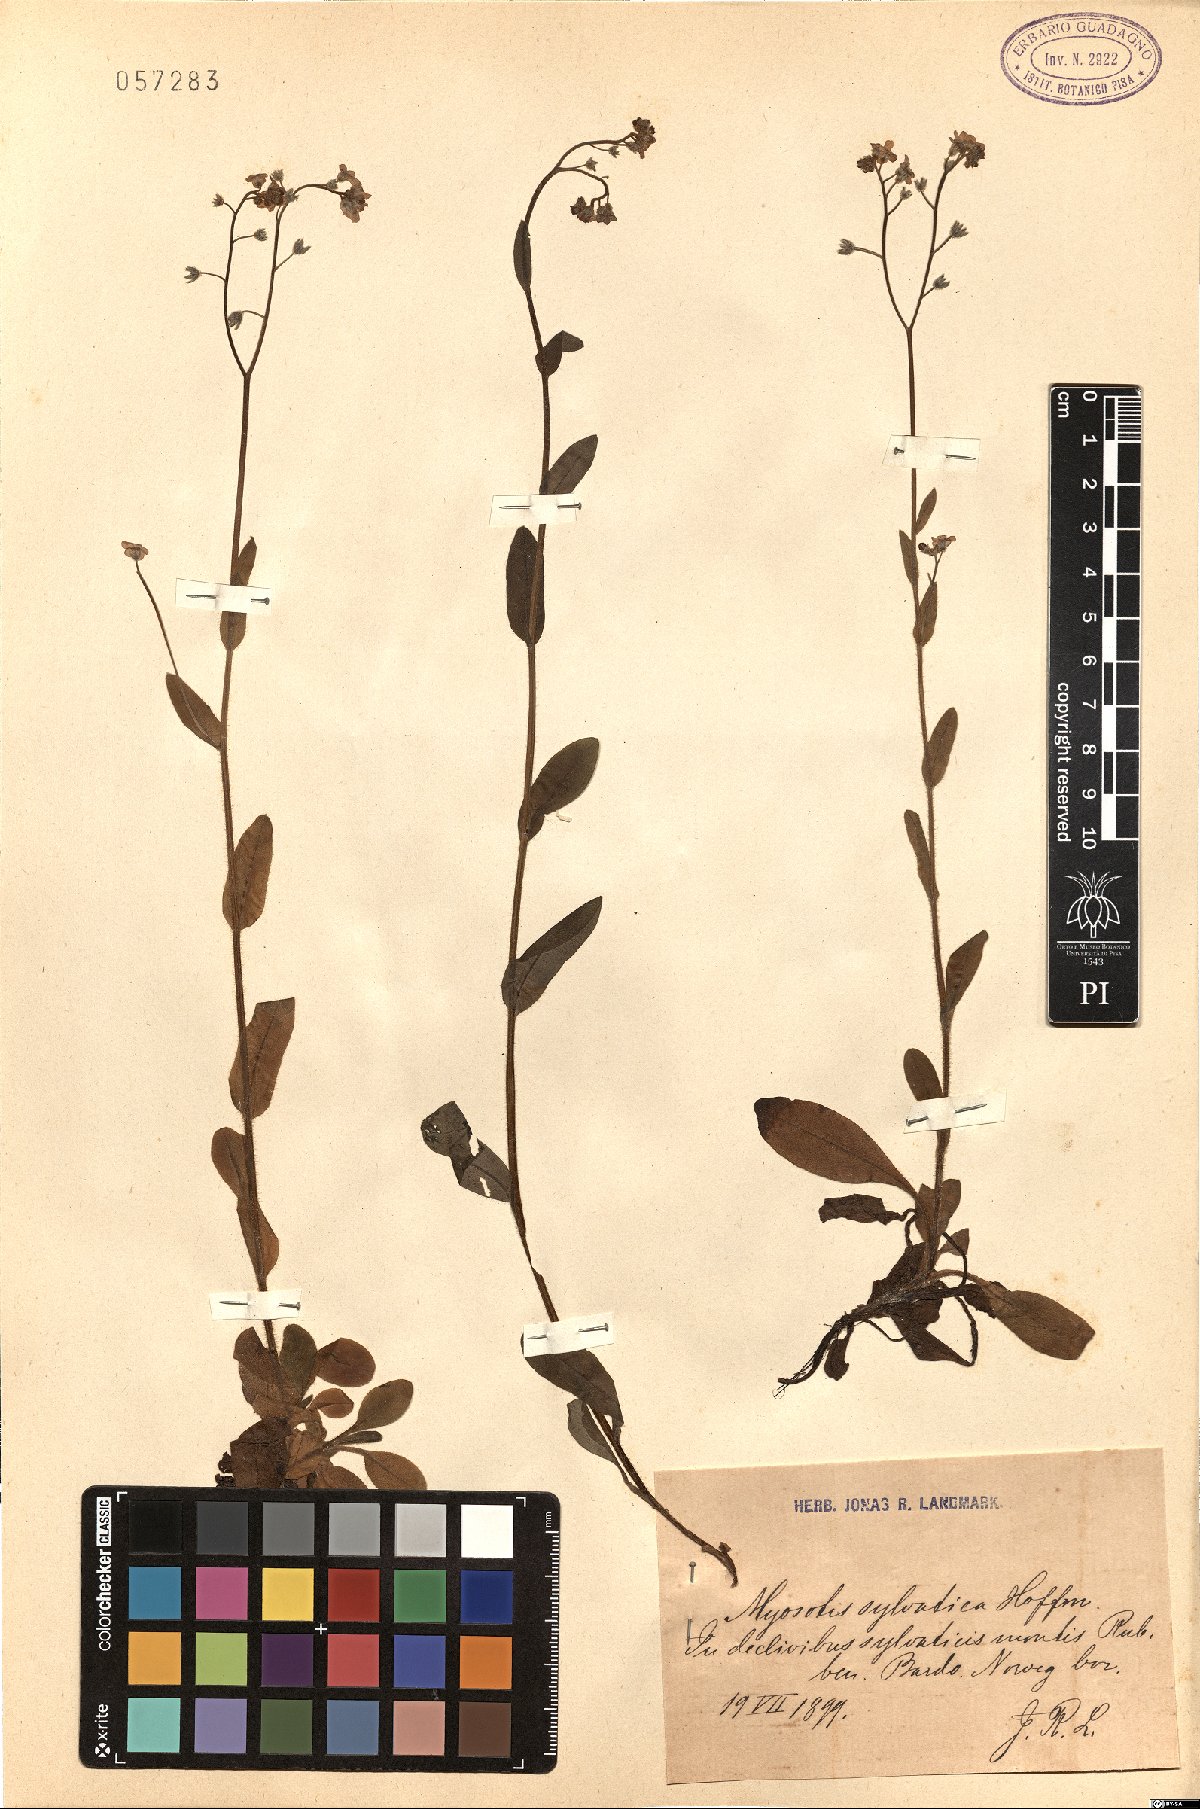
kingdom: Plantae
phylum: Tracheophyta
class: Magnoliopsida
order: Boraginales
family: Boraginaceae
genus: Myosotis
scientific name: Myosotis sylvatica
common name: Wood forget-me-not
